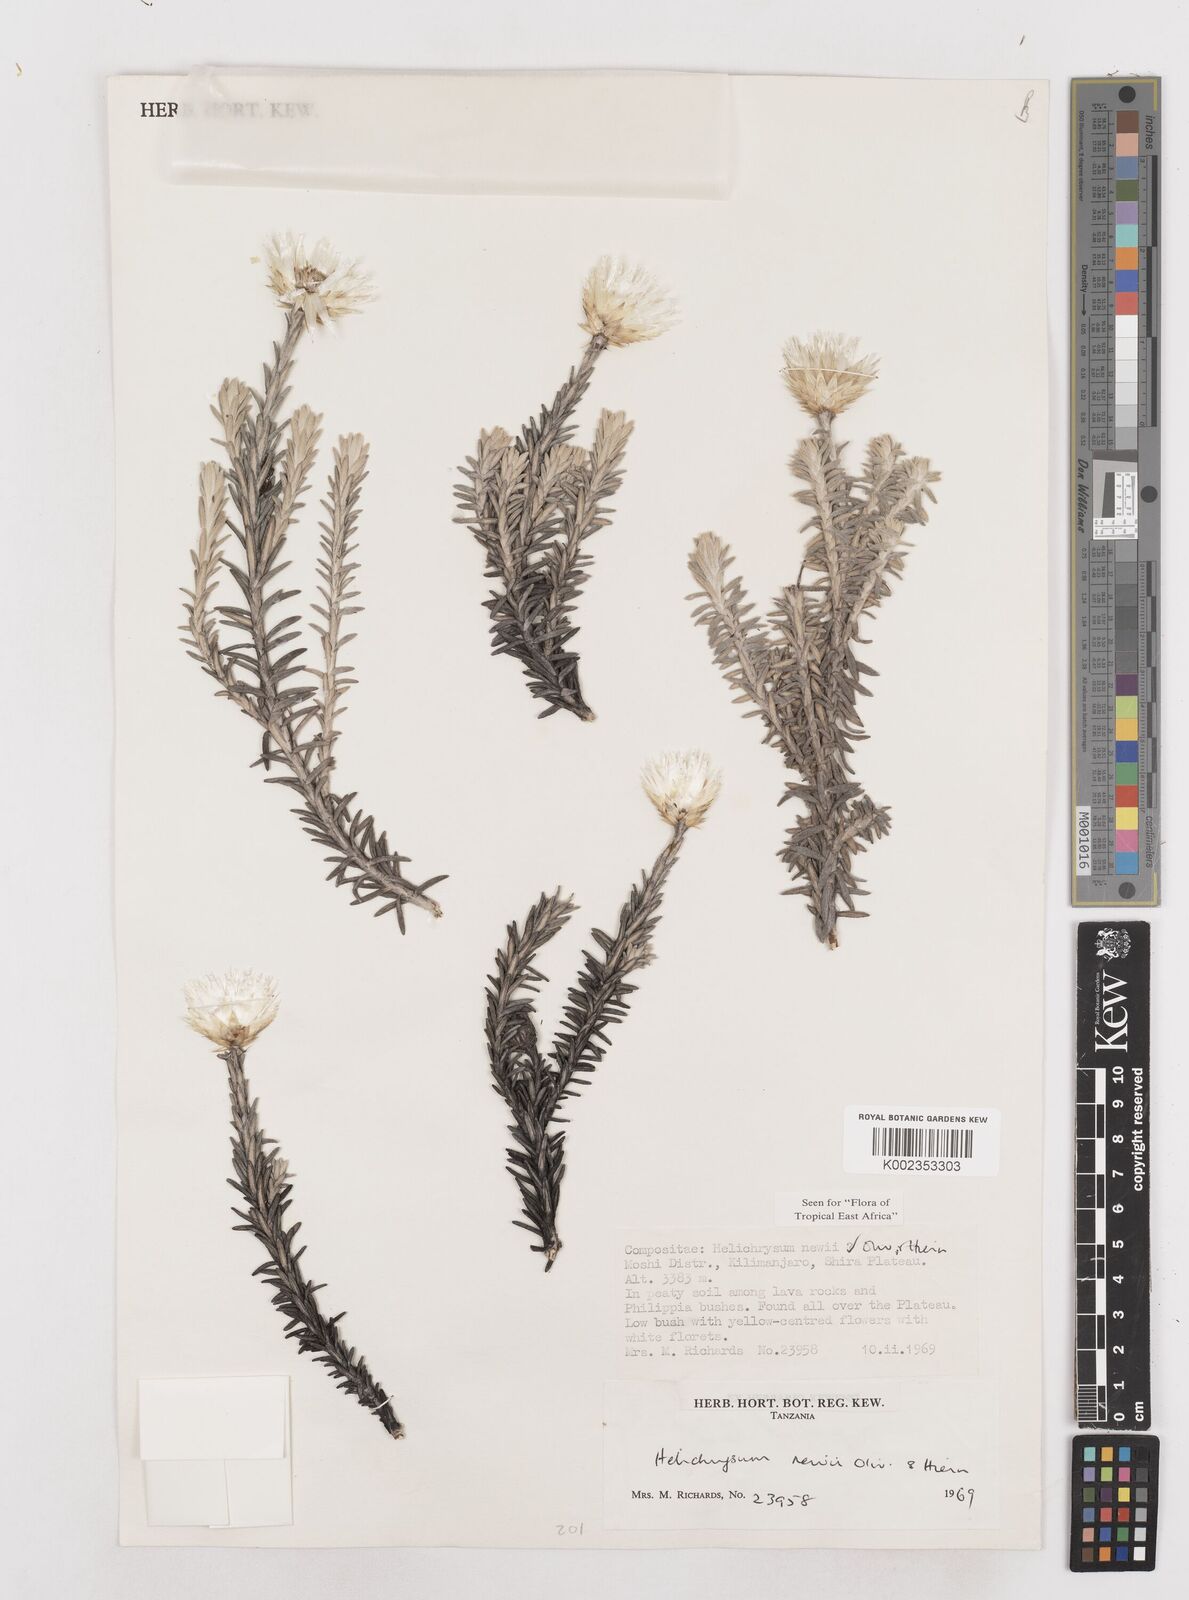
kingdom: Plantae
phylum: Tracheophyta
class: Magnoliopsida
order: Asterales
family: Asteraceae
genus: Helichrysum
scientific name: Helichrysum newii
